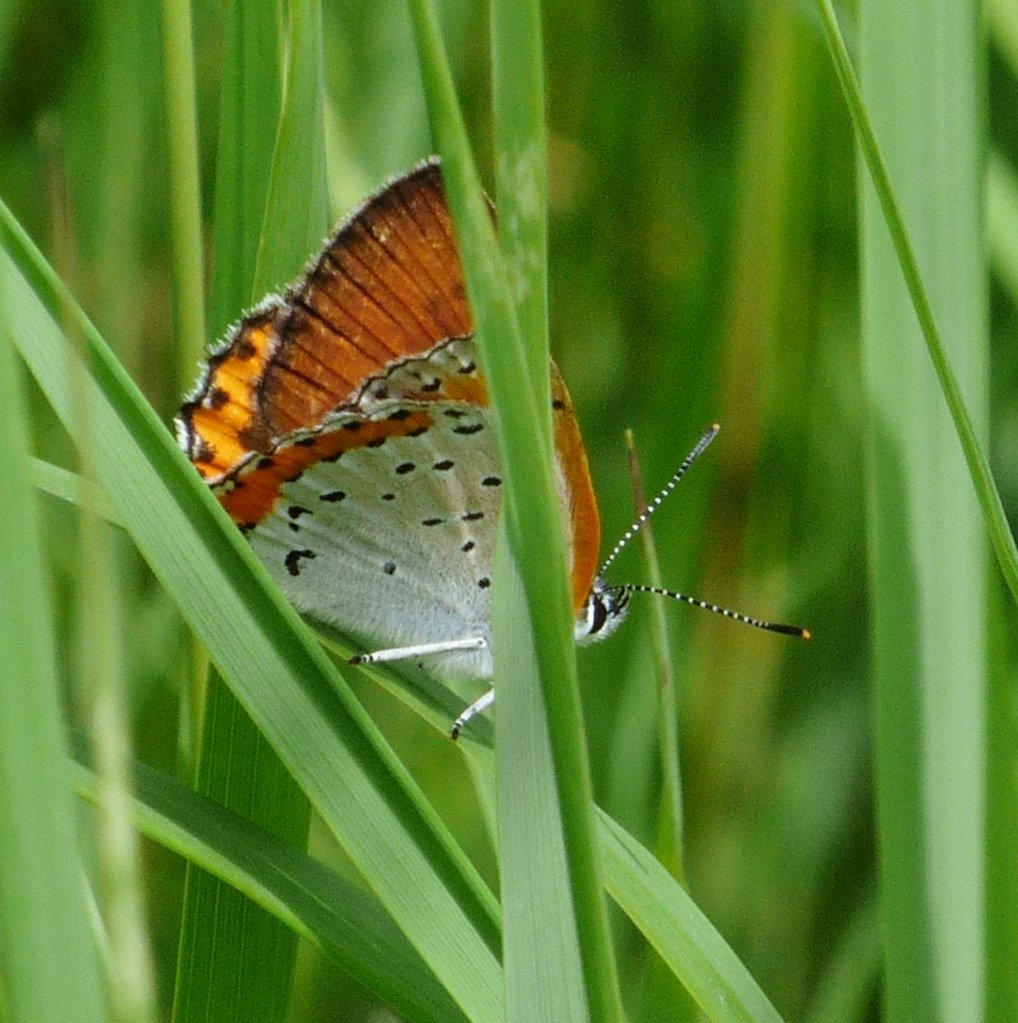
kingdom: Animalia
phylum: Arthropoda
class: Insecta
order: Lepidoptera
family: Sesiidae
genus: Sesia
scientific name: Sesia Lycaena hyllus
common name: Bronze Copper
